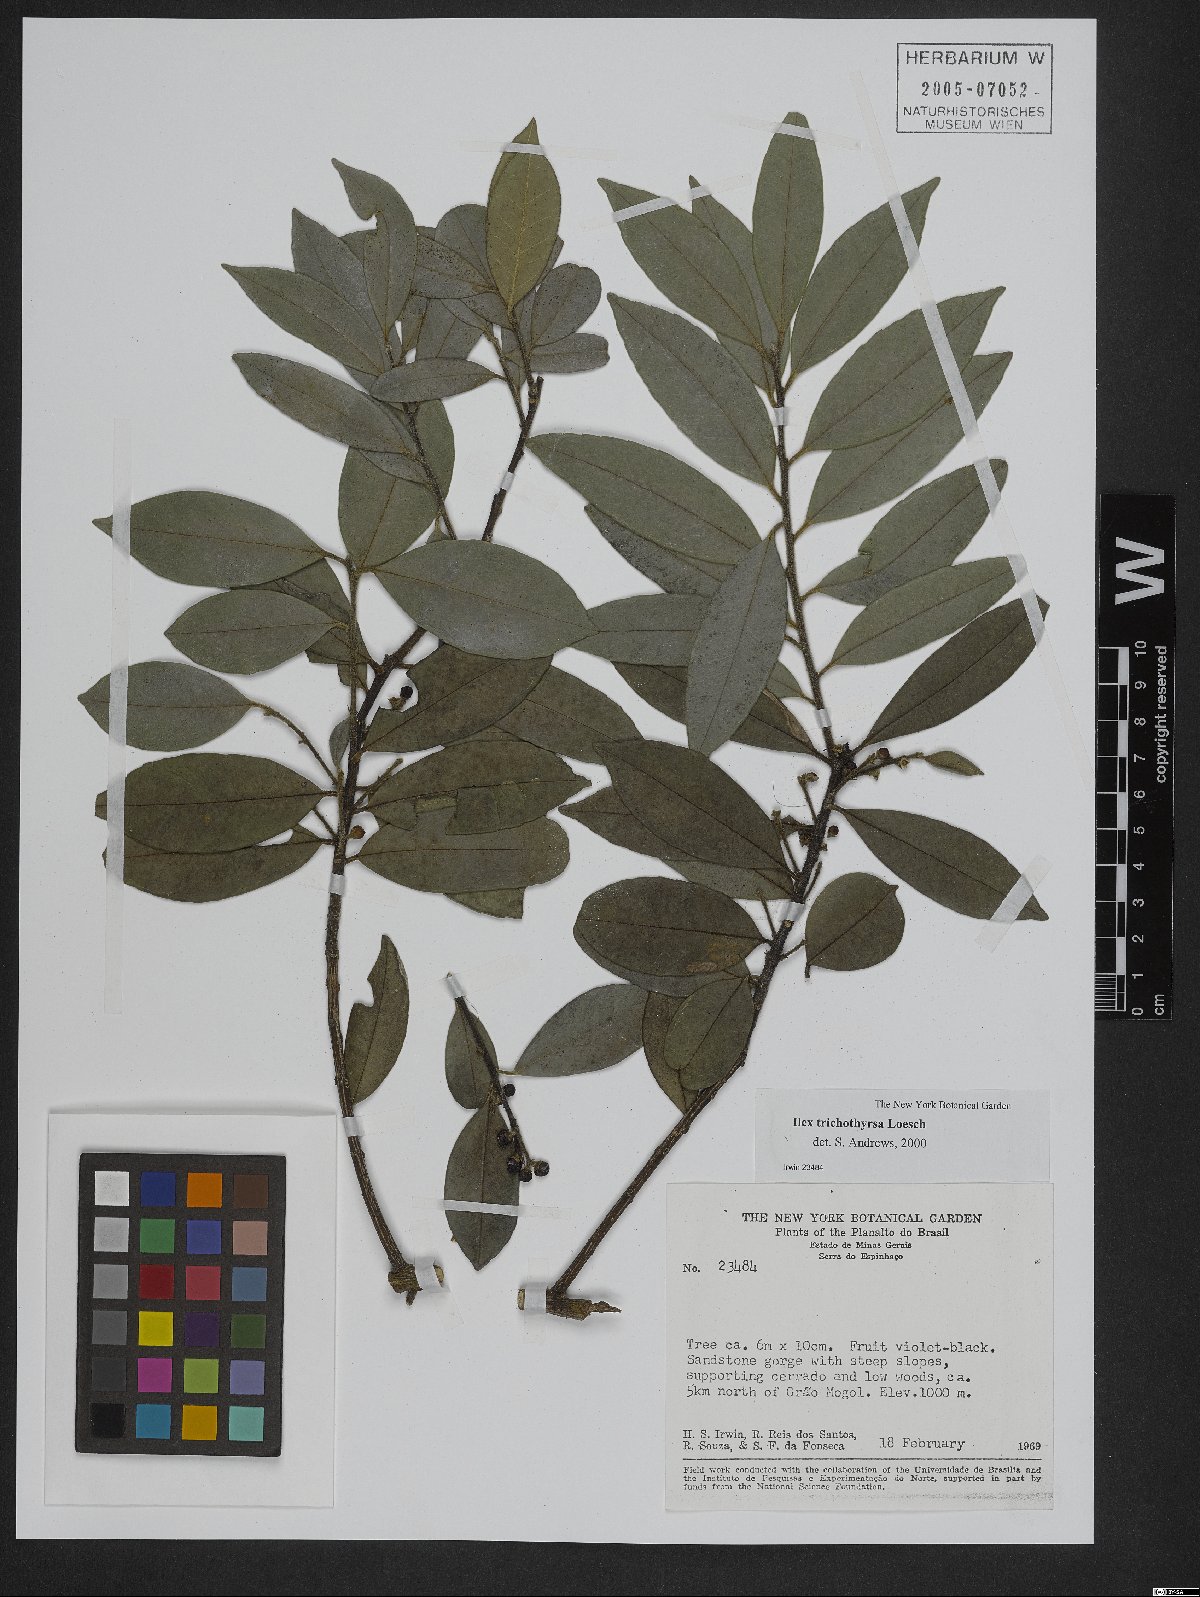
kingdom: Plantae
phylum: Tracheophyta
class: Magnoliopsida
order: Aquifoliales
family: Aquifoliaceae
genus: Ilex
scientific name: Ilex trichothyrsa
